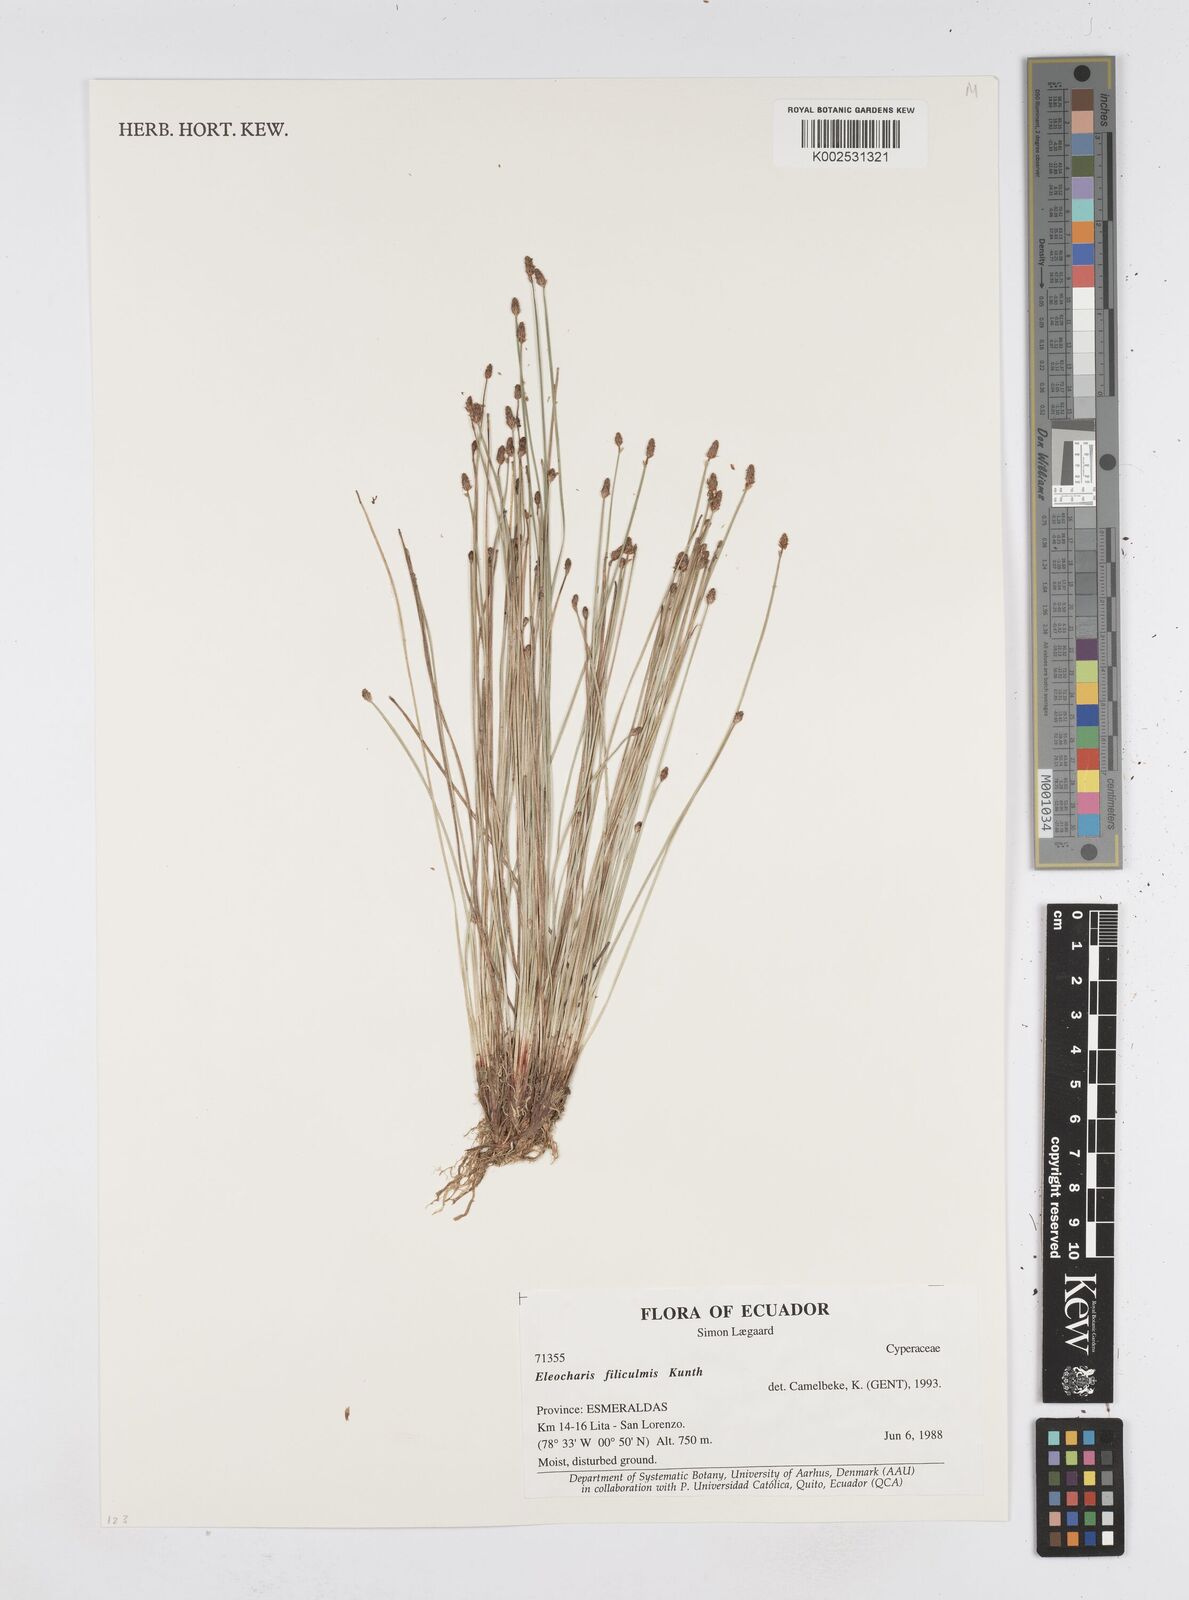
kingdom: Plantae
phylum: Tracheophyta
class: Liliopsida
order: Poales
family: Cyperaceae
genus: Eleocharis
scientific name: Eleocharis filiculmis
